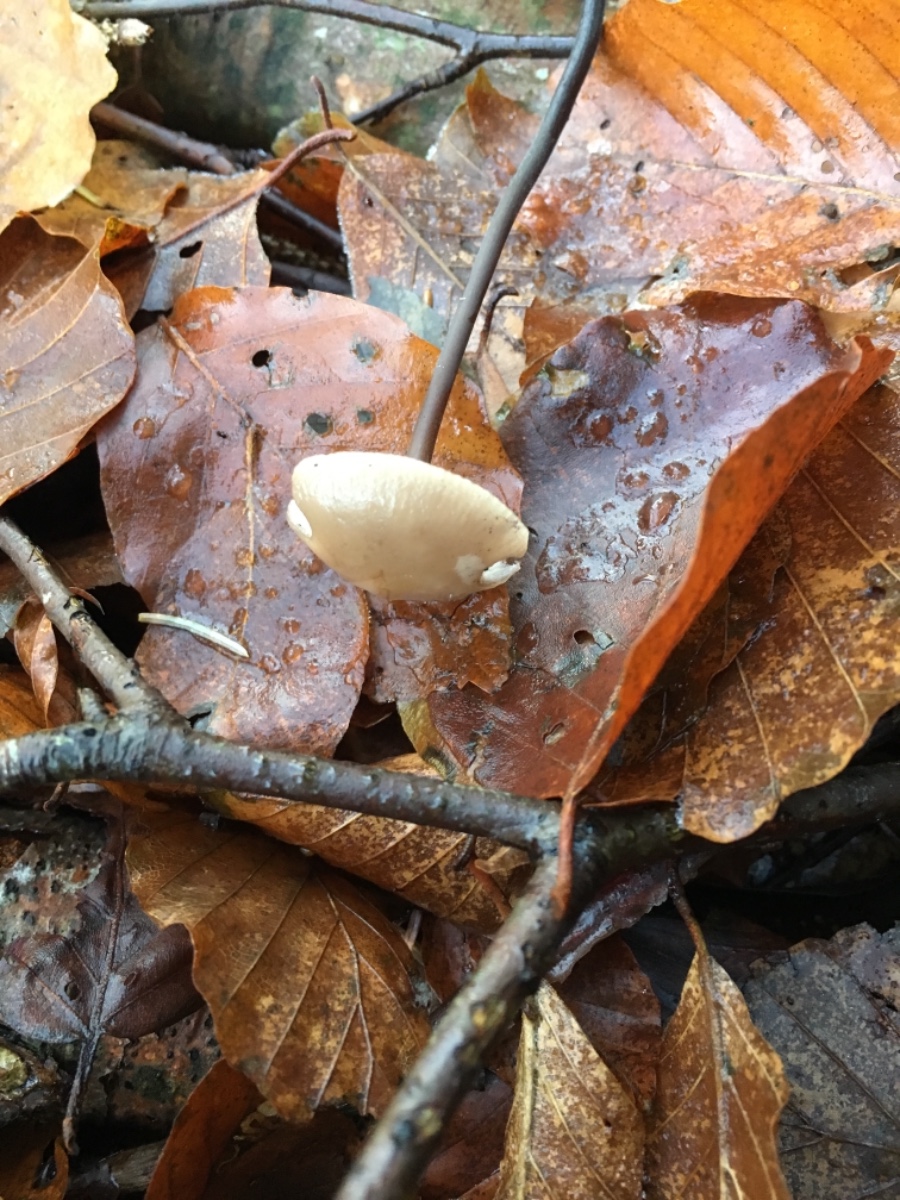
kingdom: Fungi
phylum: Basidiomycota
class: Agaricomycetes
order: Agaricales
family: Omphalotaceae
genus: Mycetinis
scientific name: Mycetinis alliaceus
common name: stor løghat
